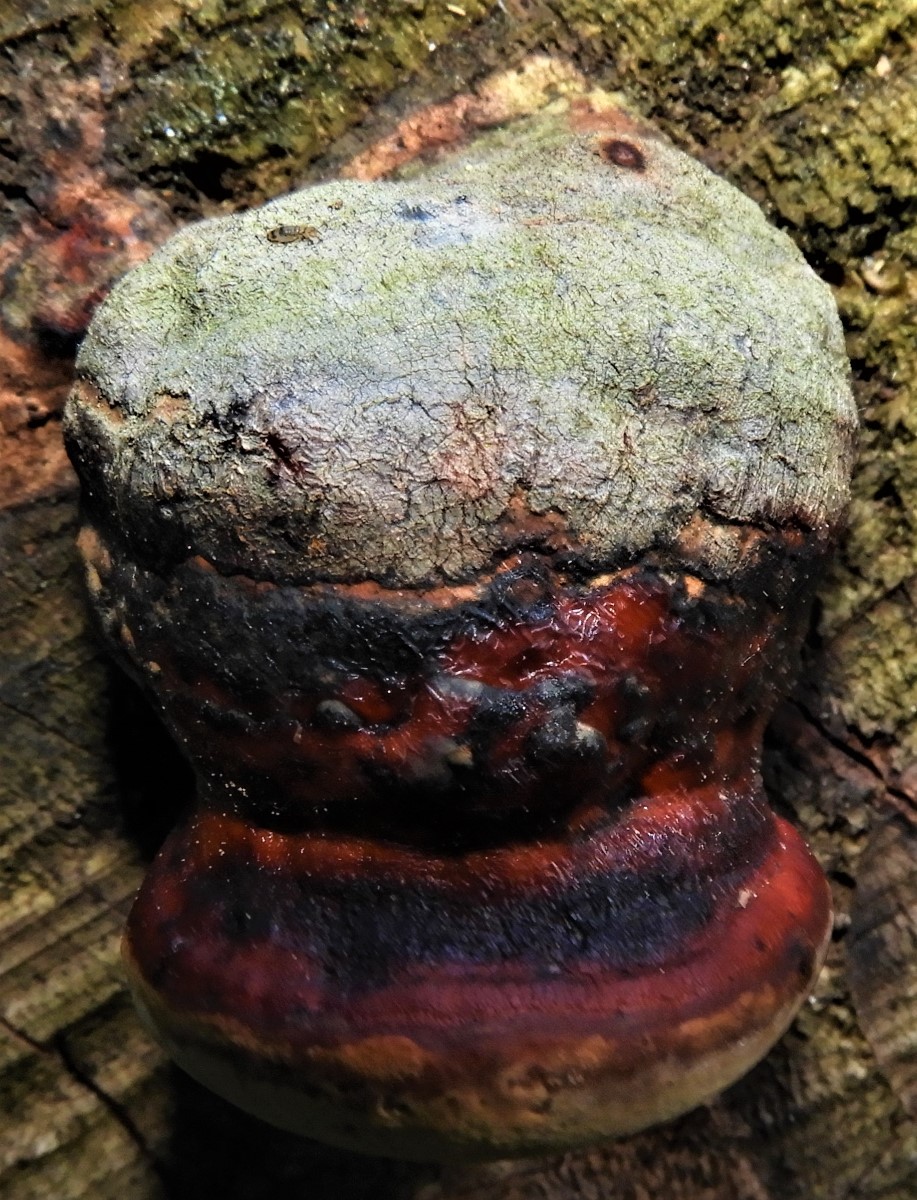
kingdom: Fungi
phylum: Basidiomycota
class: Agaricomycetes
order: Polyporales
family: Fomitopsidaceae
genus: Fomitopsis
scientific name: Fomitopsis pinicola
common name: randbæltet hovporesvamp
